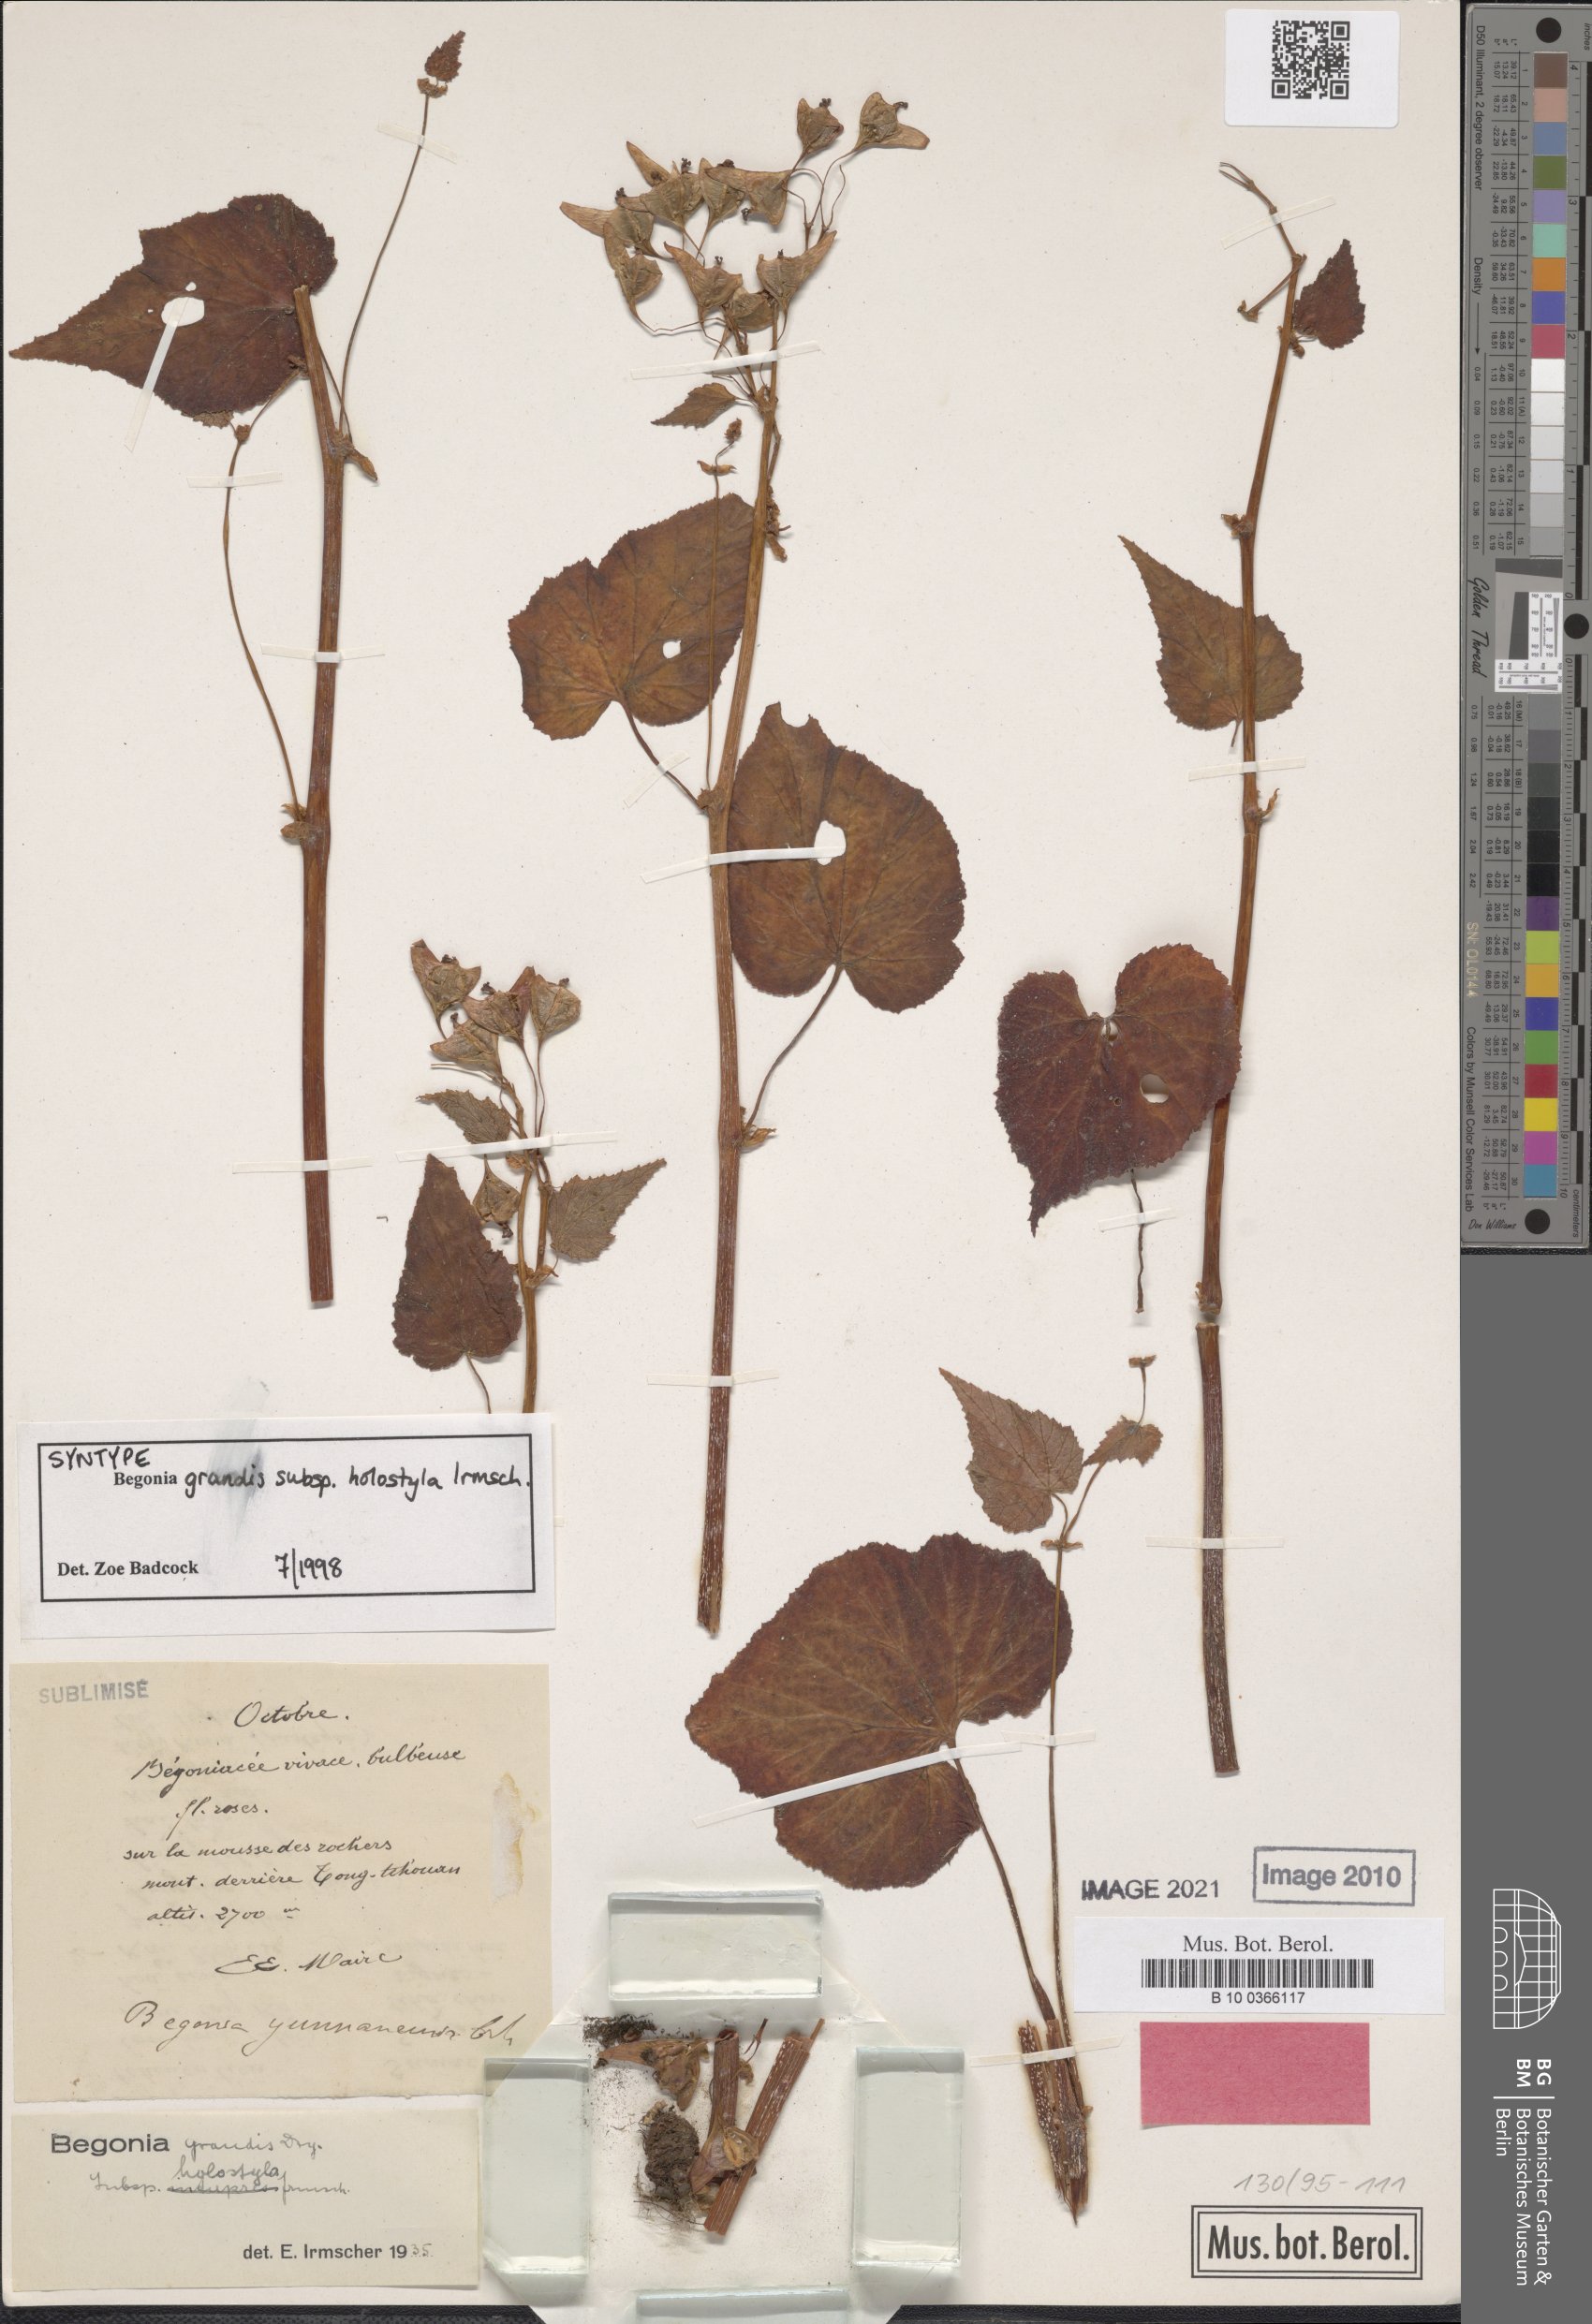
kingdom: Plantae
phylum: Tracheophyta
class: Magnoliopsida
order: Cucurbitales
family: Begoniaceae
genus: Begonia
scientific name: Begonia grandis
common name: Hardy begonia
